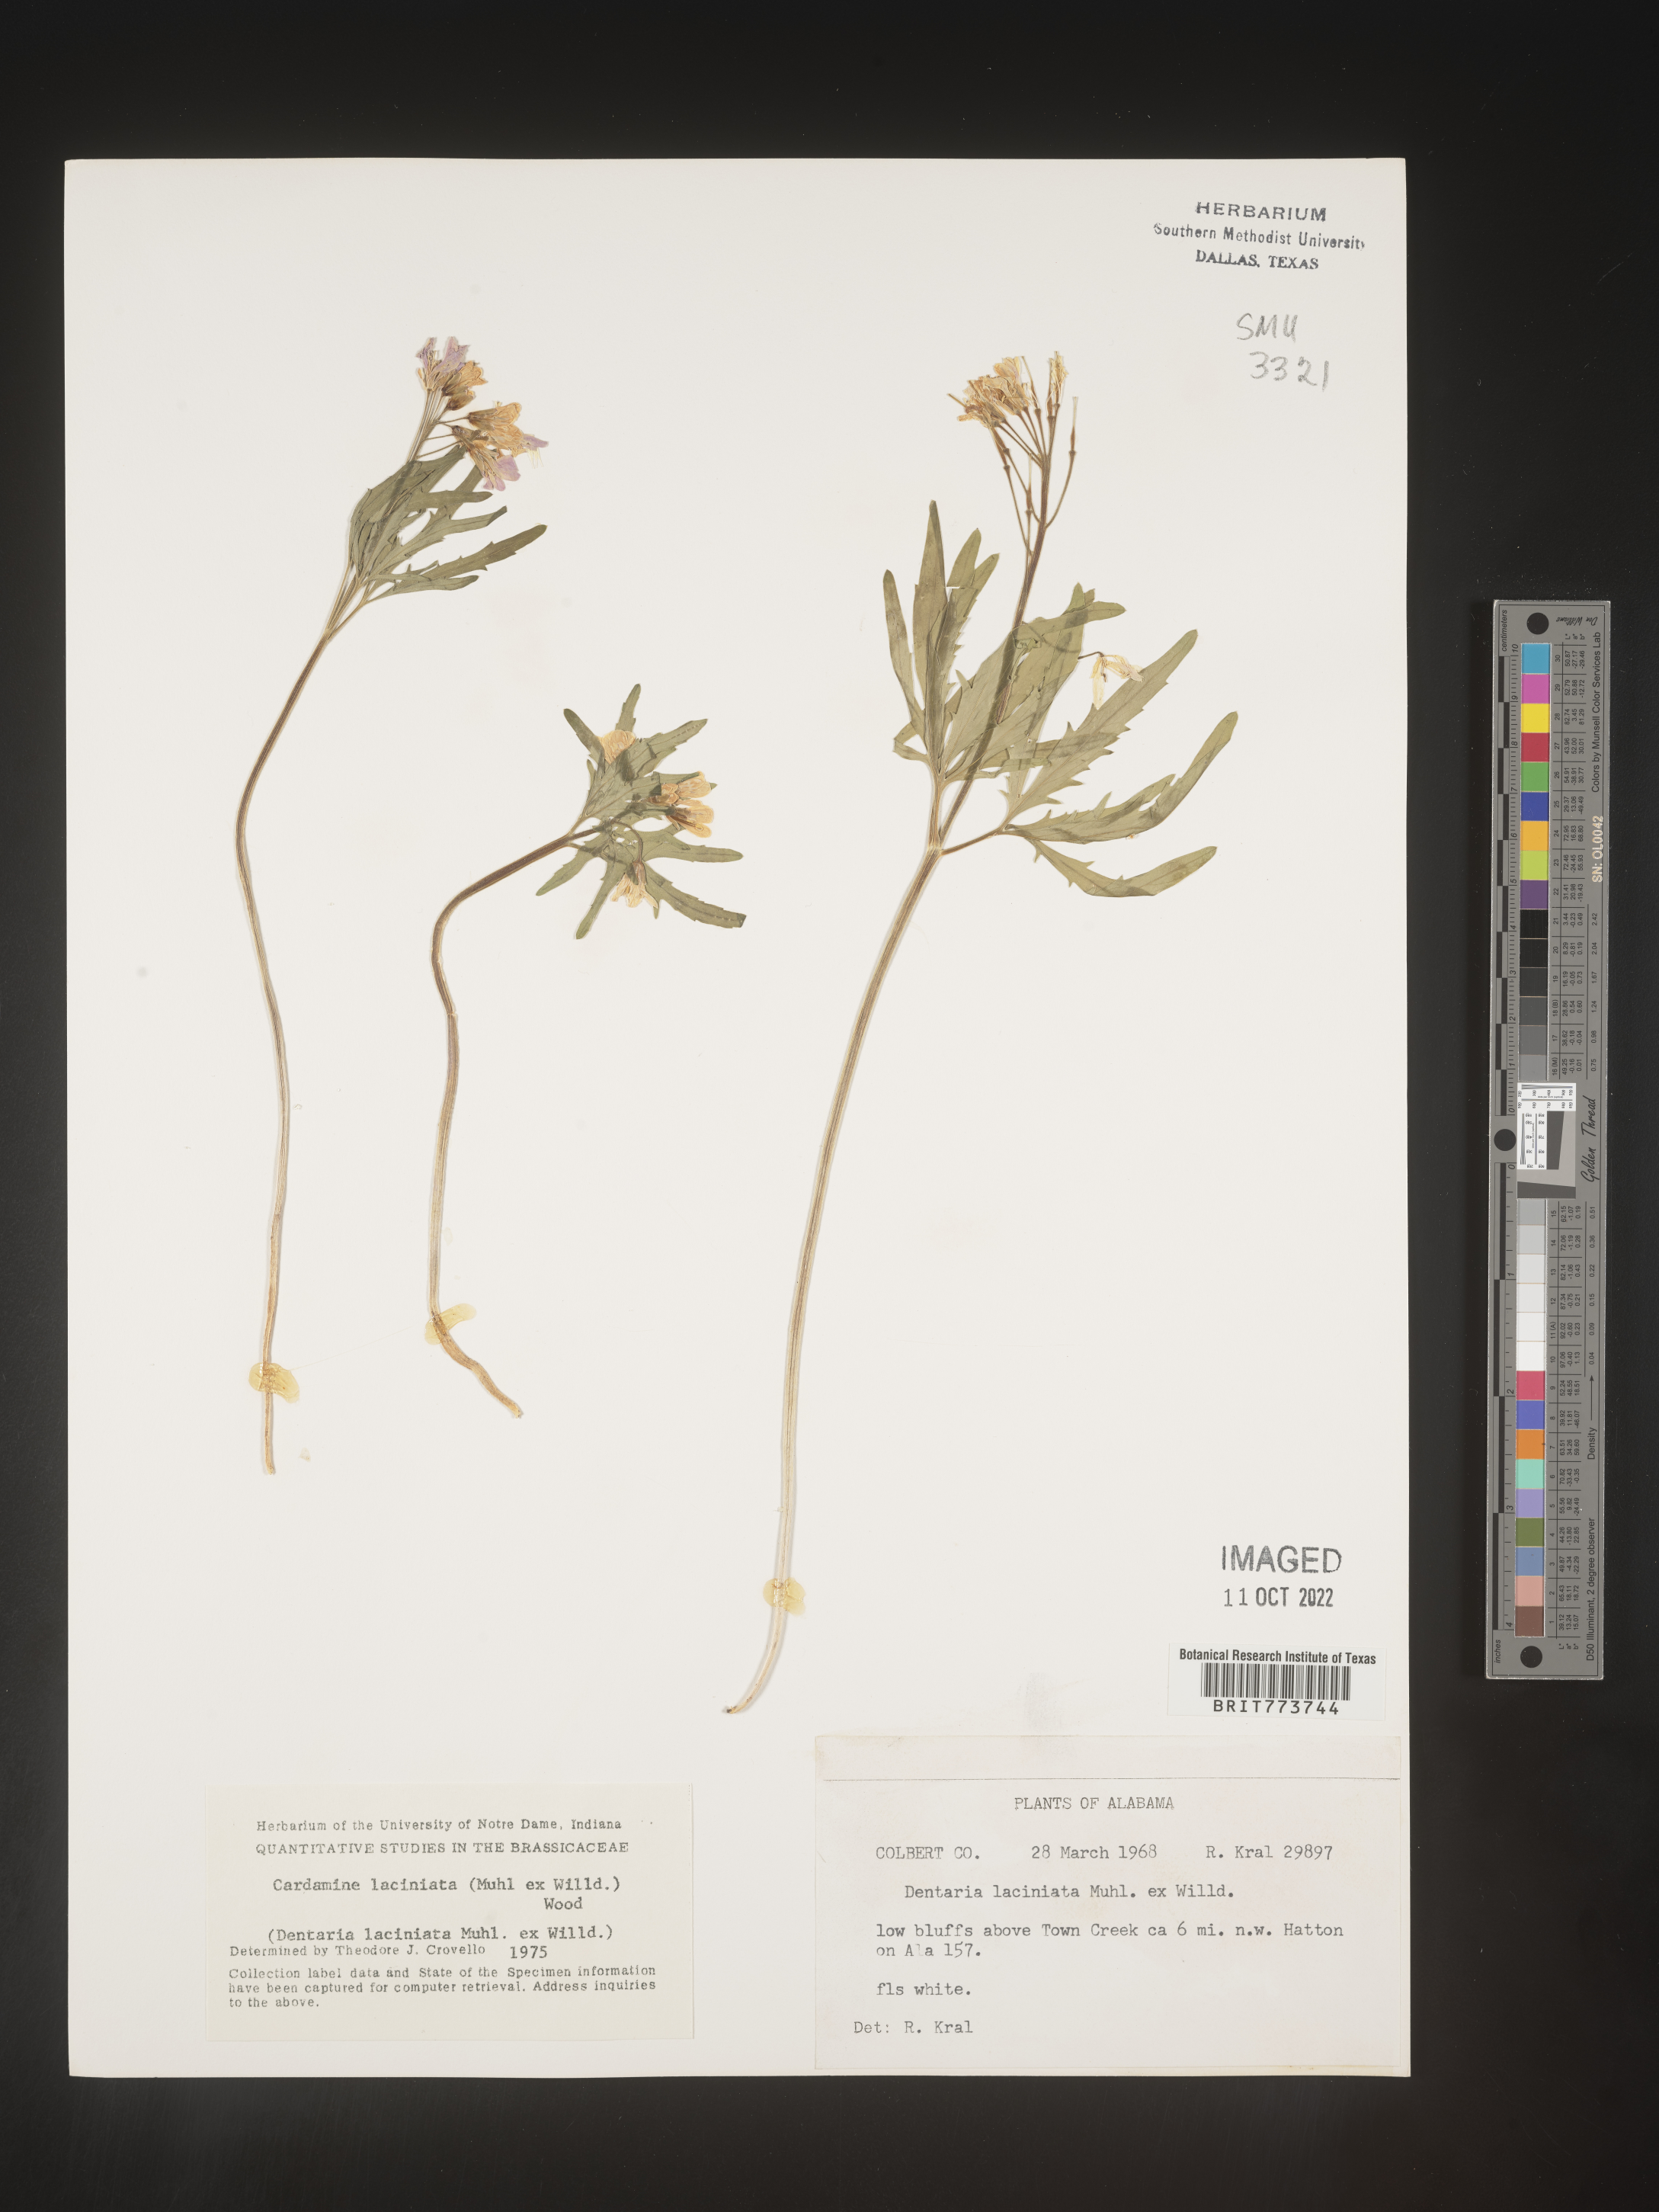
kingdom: Plantae
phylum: Tracheophyta
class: Magnoliopsida
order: Brassicales
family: Brassicaceae
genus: Rorippa
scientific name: Rorippa laciniata
